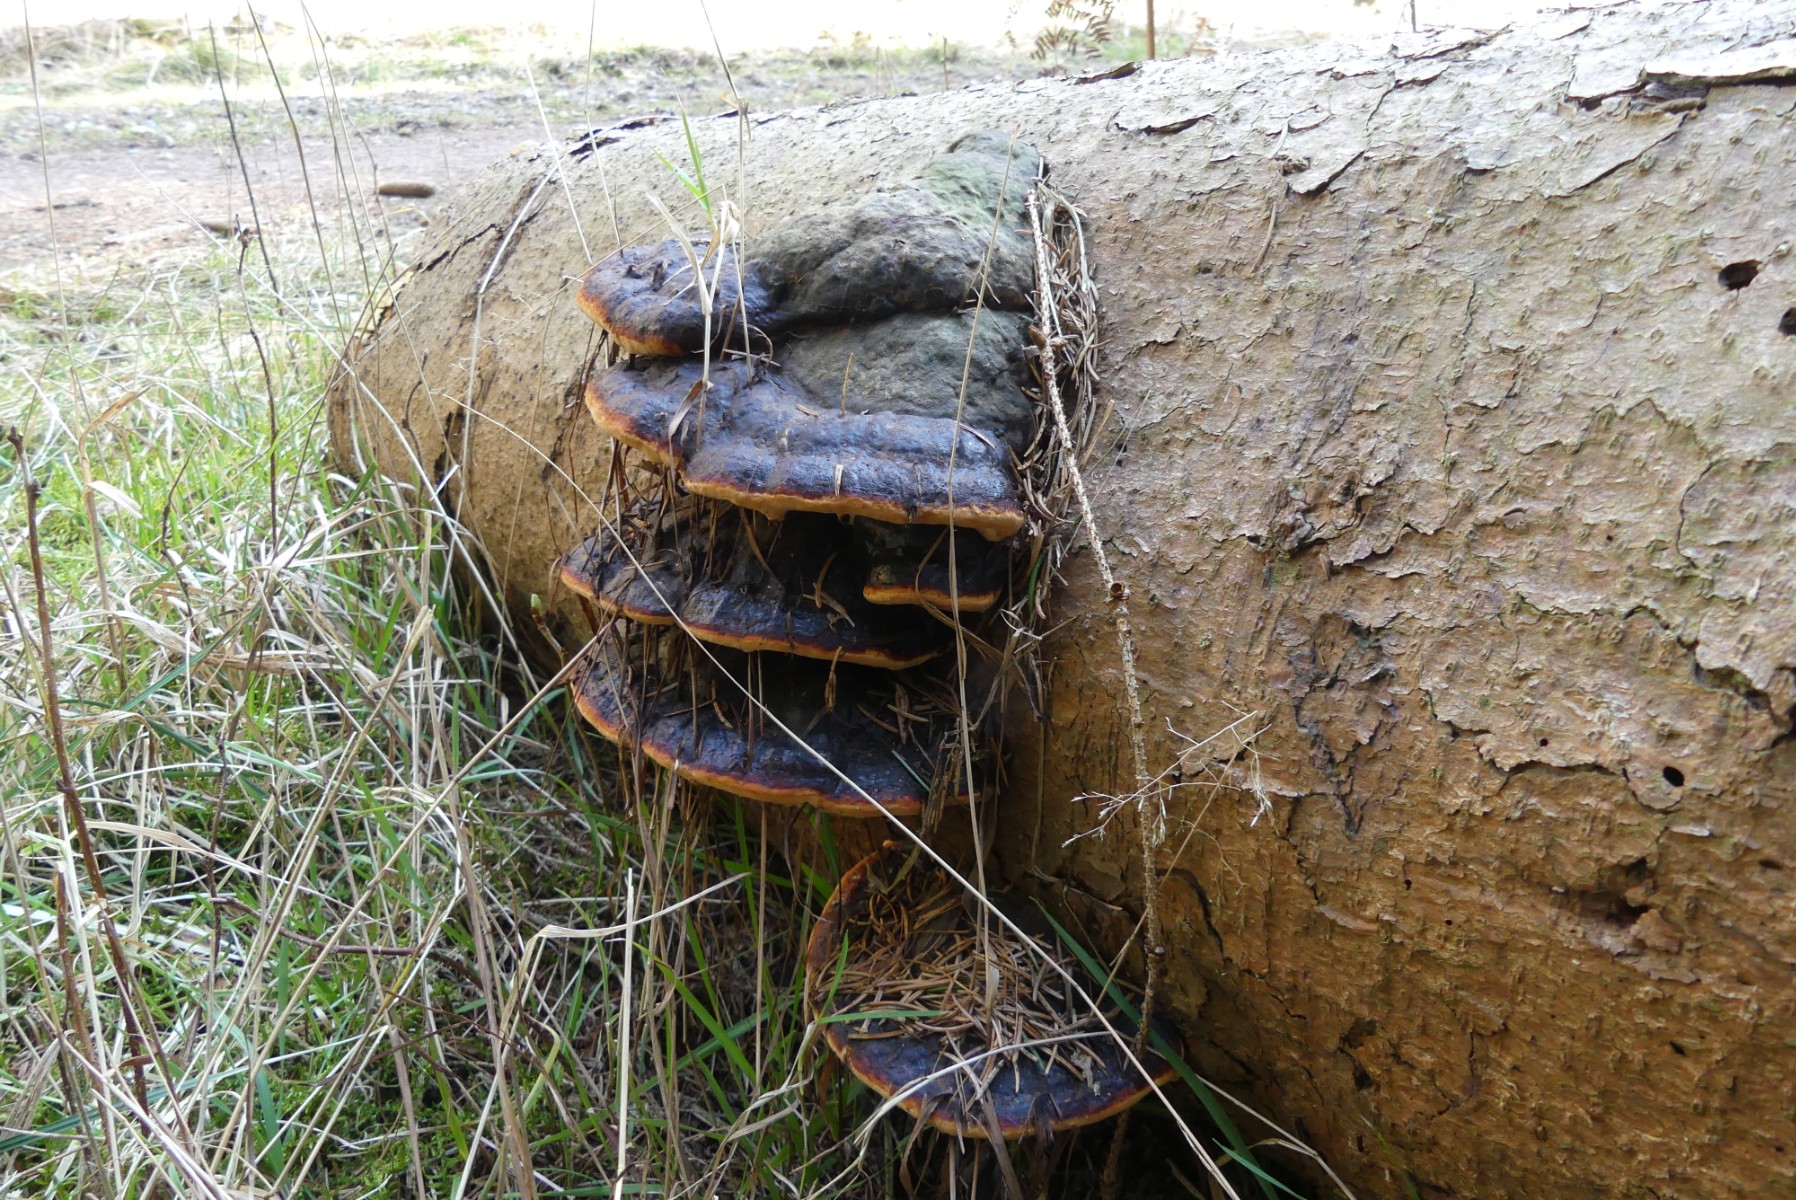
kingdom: Fungi
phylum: Basidiomycota
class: Agaricomycetes
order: Polyporales
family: Fomitopsidaceae
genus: Fomitopsis
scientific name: Fomitopsis pinicola
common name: randbæltet hovporesvamp
